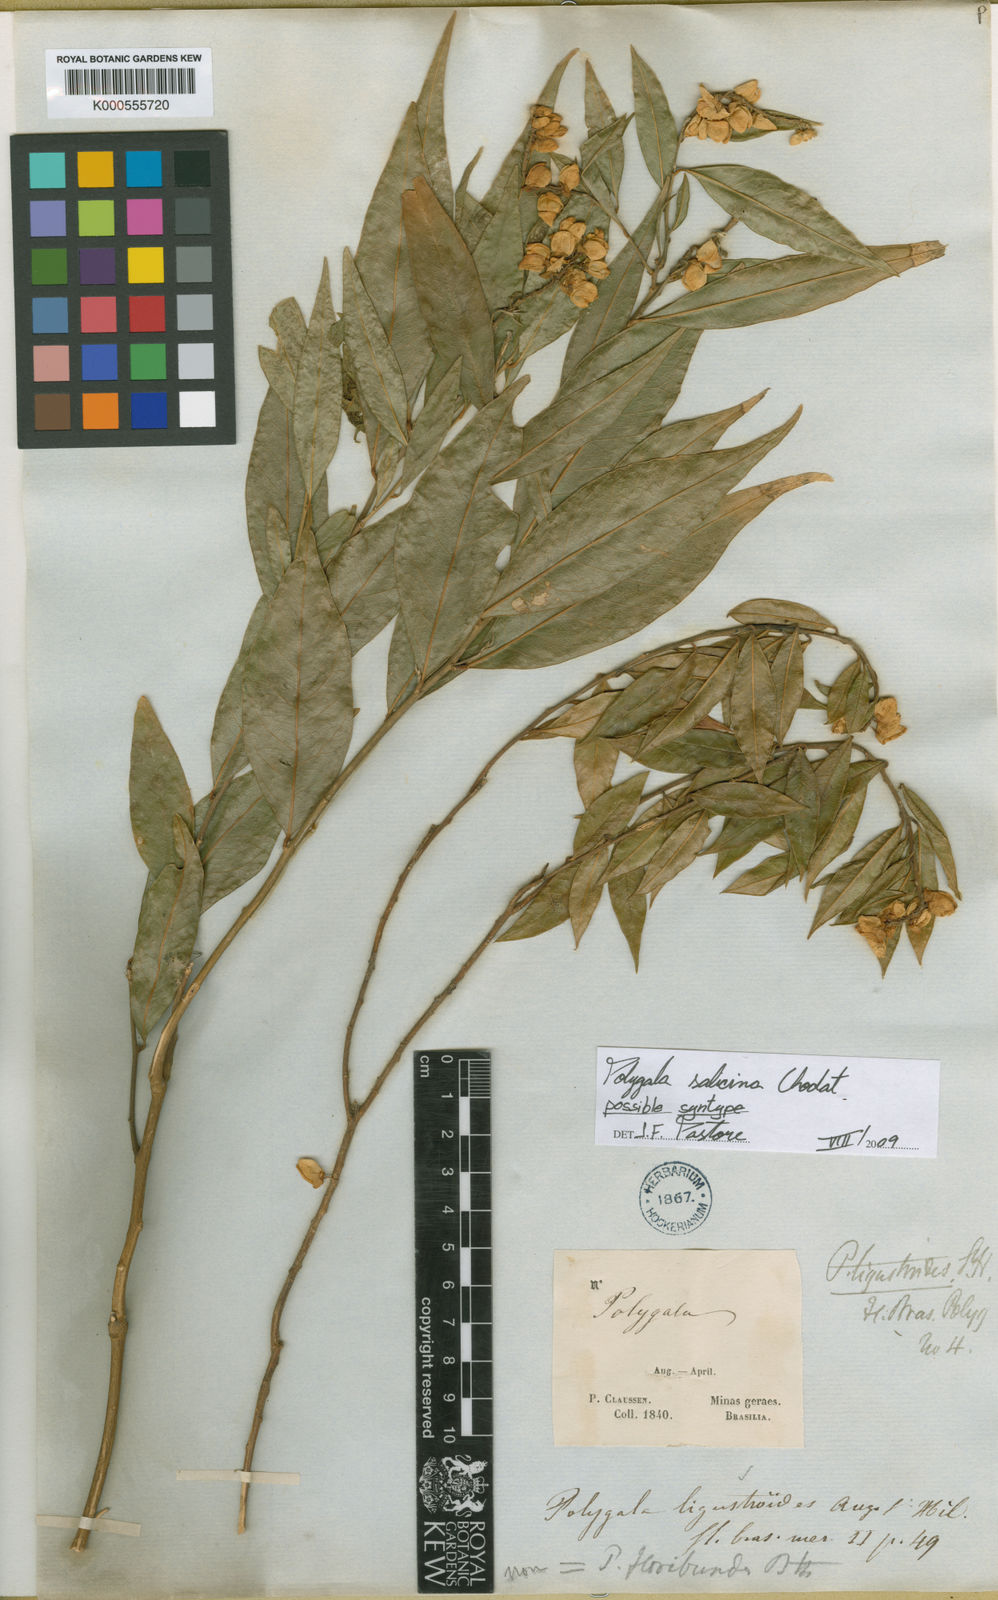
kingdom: Plantae
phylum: Tracheophyta
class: Magnoliopsida
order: Fabales
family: Polygalaceae
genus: Caamembeca
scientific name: Caamembeca oxyphylla
